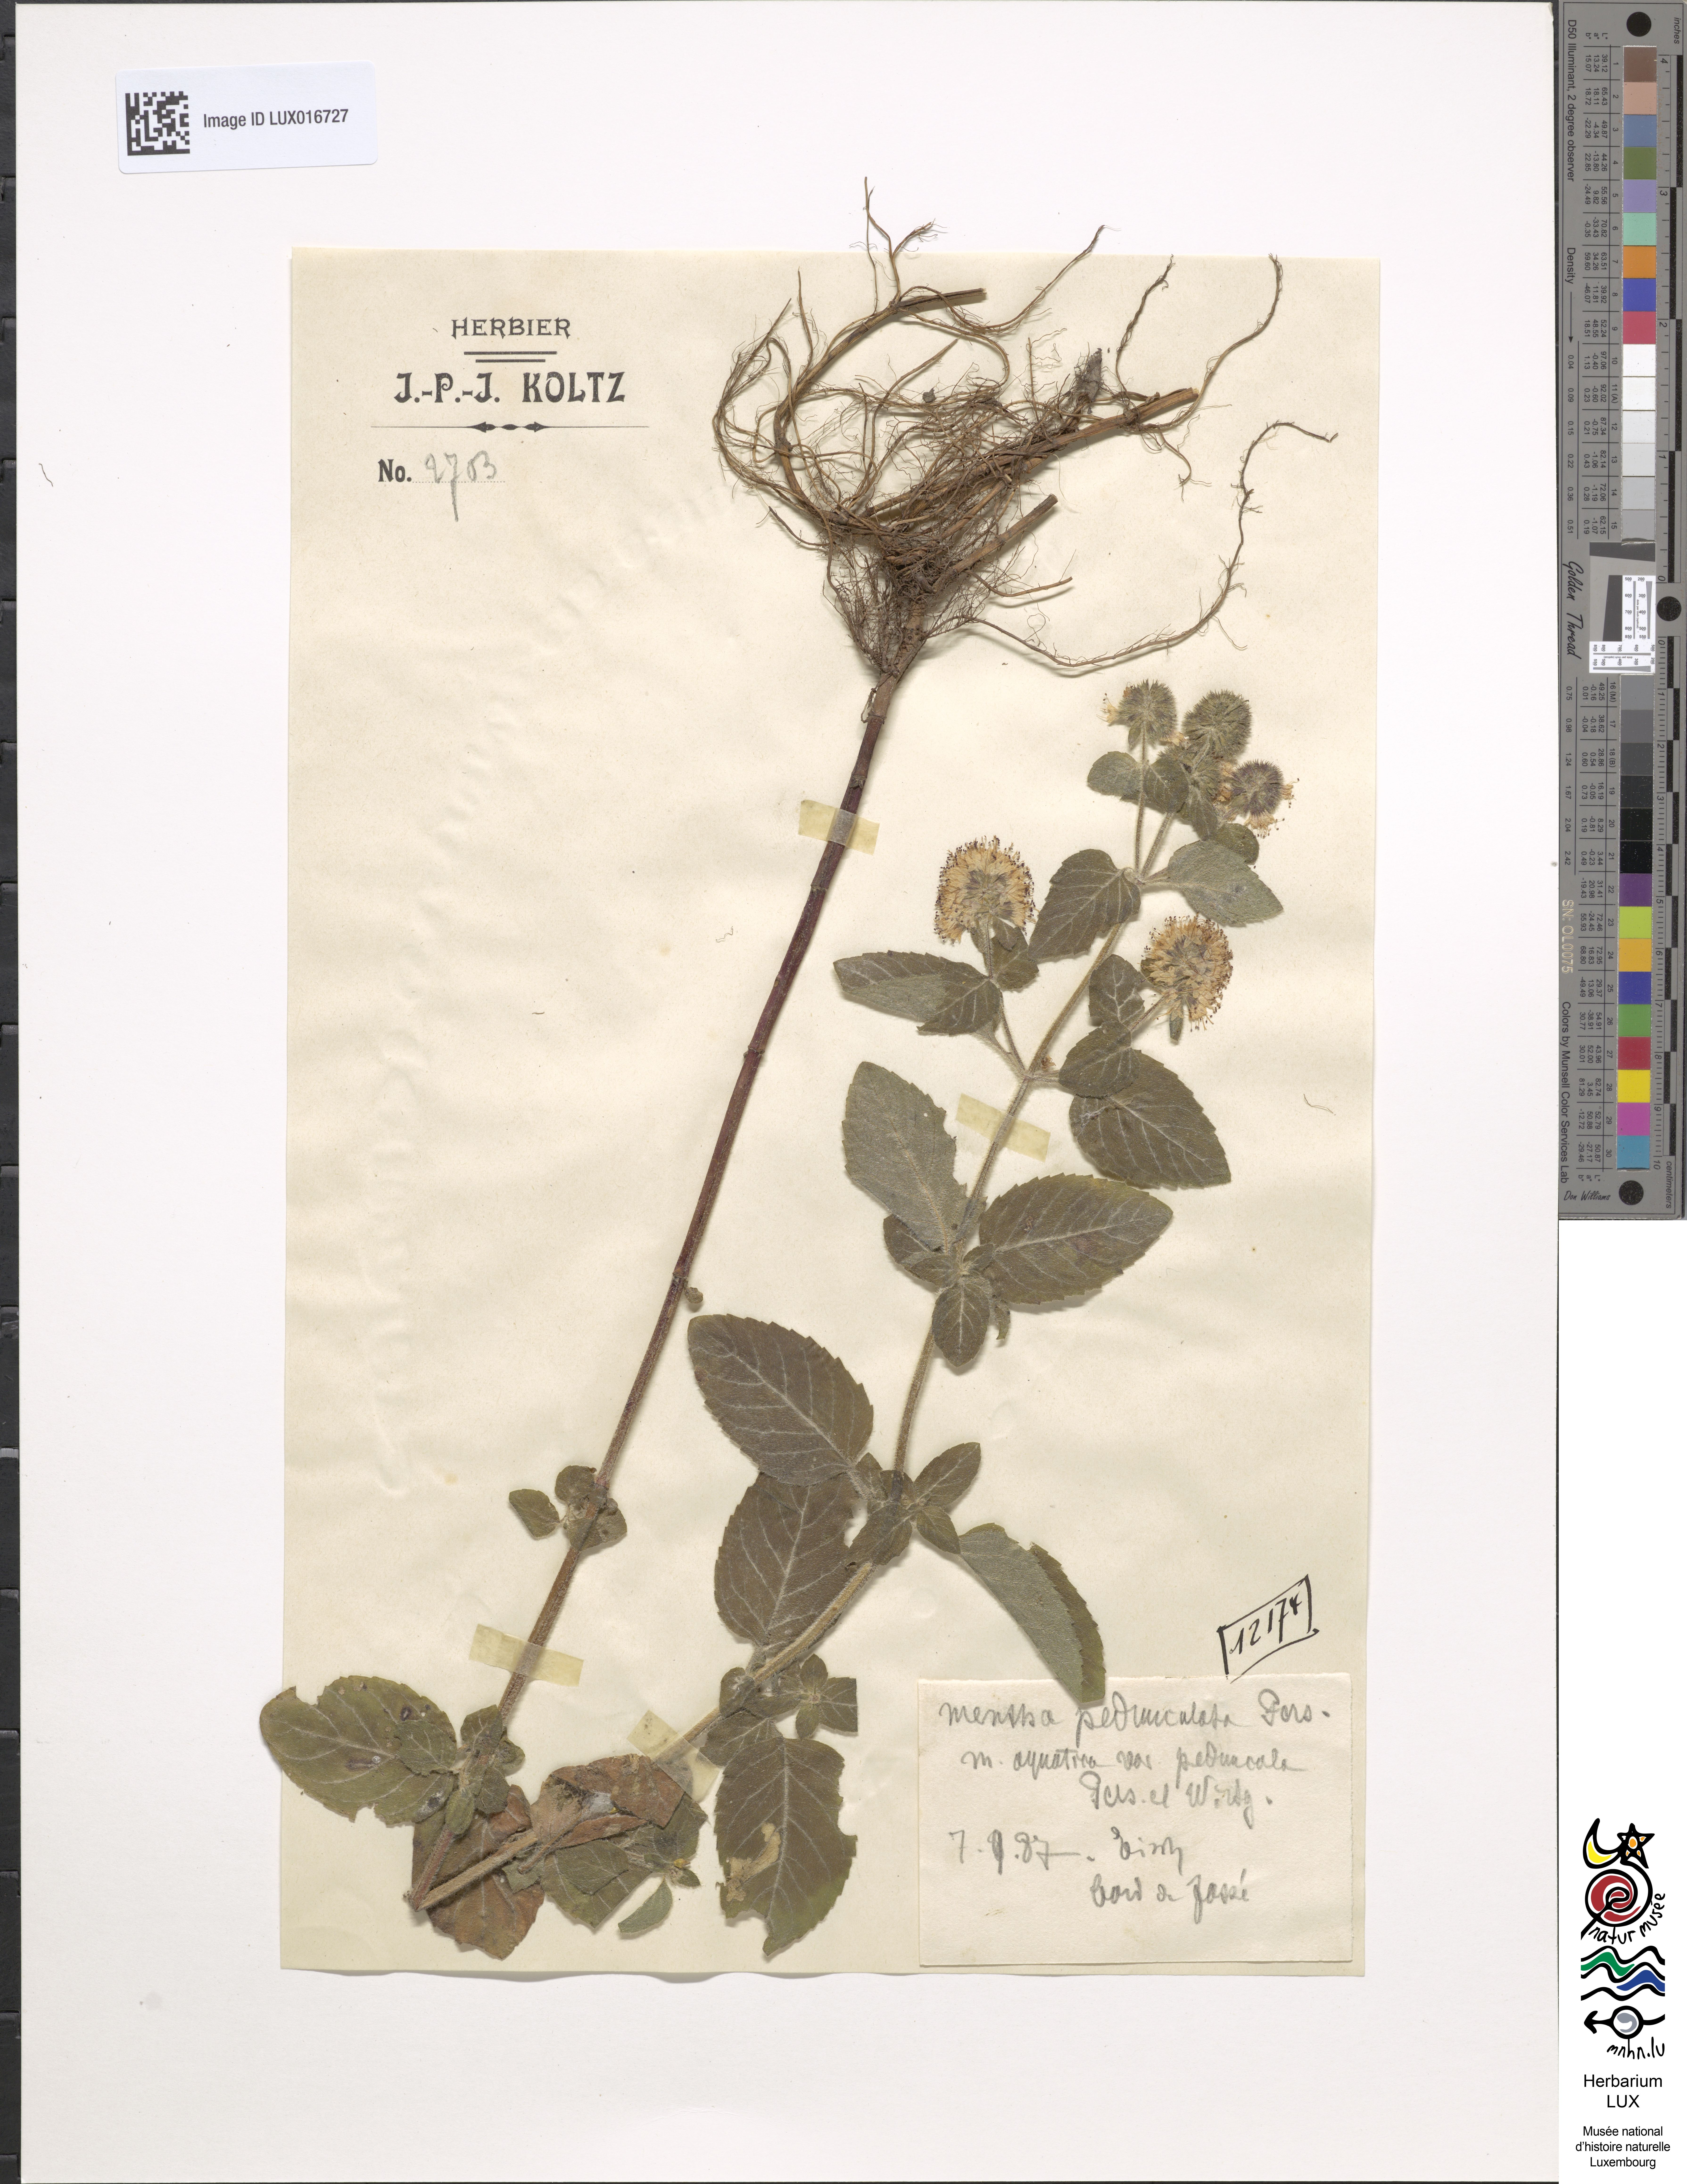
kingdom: Plantae
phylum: Tracheophyta
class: Magnoliopsida
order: Lamiales
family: Lamiaceae
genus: Mentha
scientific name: Mentha aquatica
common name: Water mint
